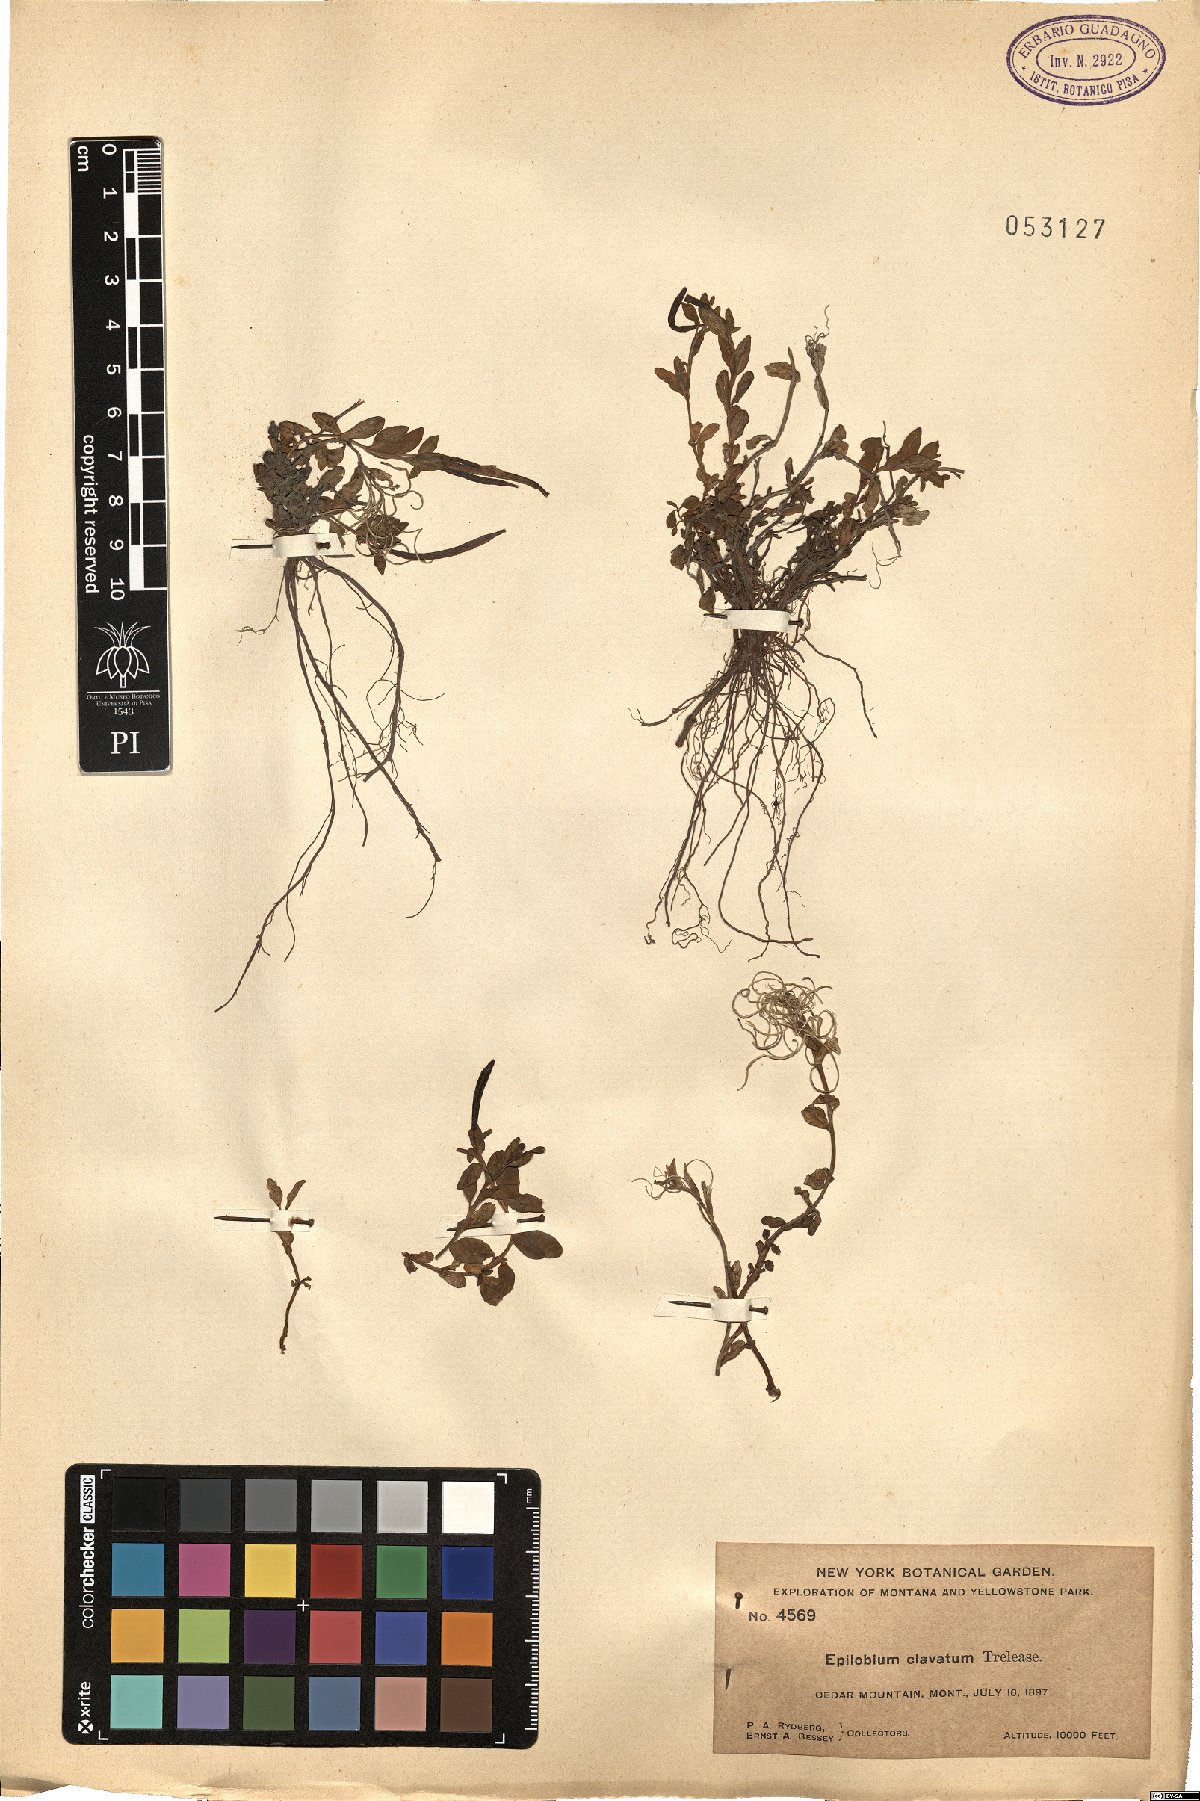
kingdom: Plantae
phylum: Tracheophyta
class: Magnoliopsida
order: Myrtales
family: Onagraceae
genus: Epilobium
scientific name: Epilobium clavatum
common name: Clavate-fruit willowherb
